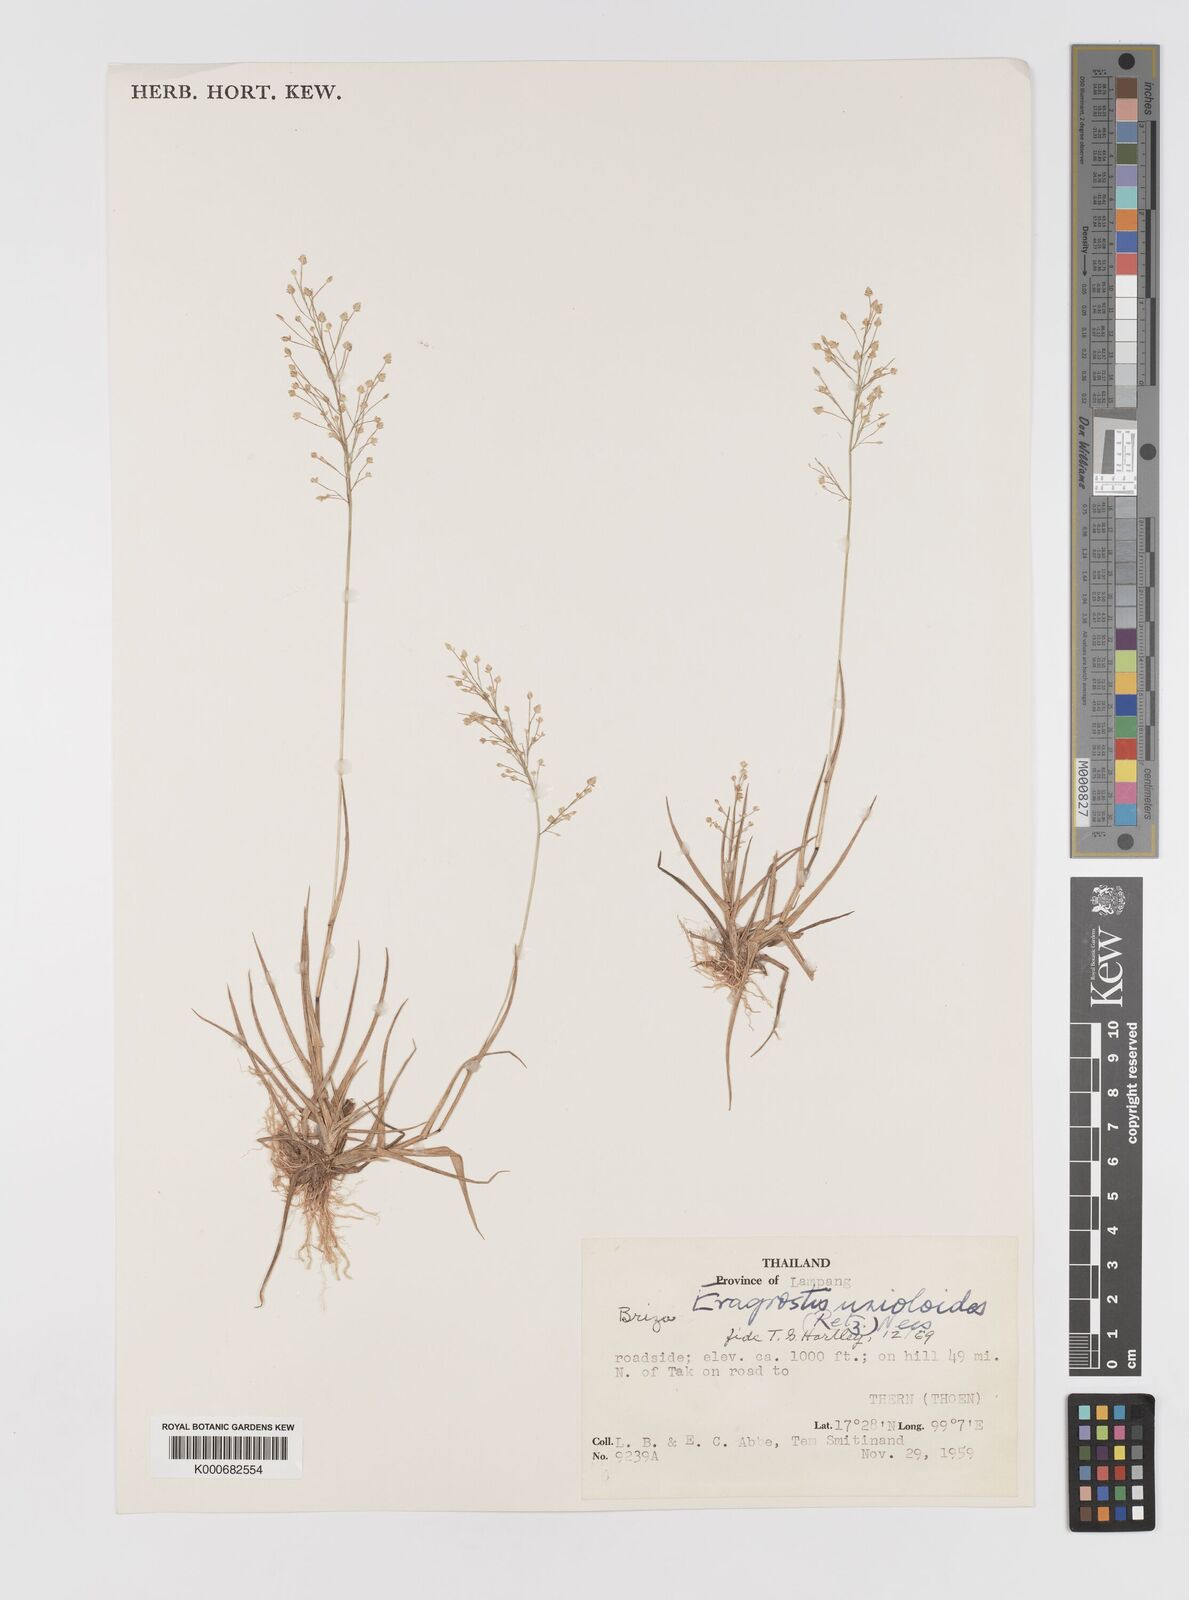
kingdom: Plantae
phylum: Tracheophyta
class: Liliopsida
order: Poales
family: Poaceae
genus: Eragrostis
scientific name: Eragrostis unioloides
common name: Chinese lovegrass
